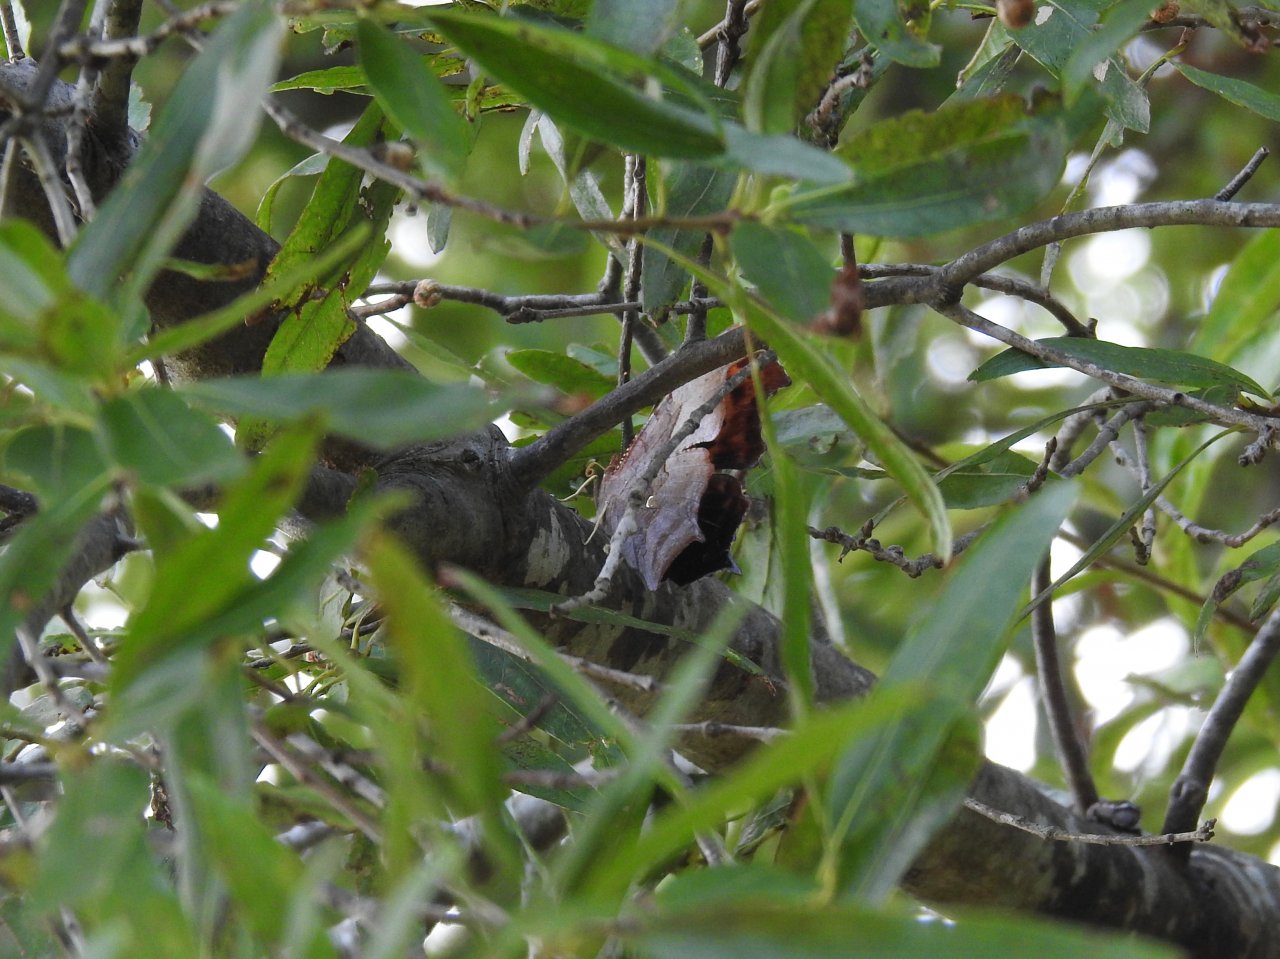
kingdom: Animalia
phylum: Arthropoda
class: Insecta
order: Lepidoptera
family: Nymphalidae
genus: Polygonia
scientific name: Polygonia interrogationis
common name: Question Mark
